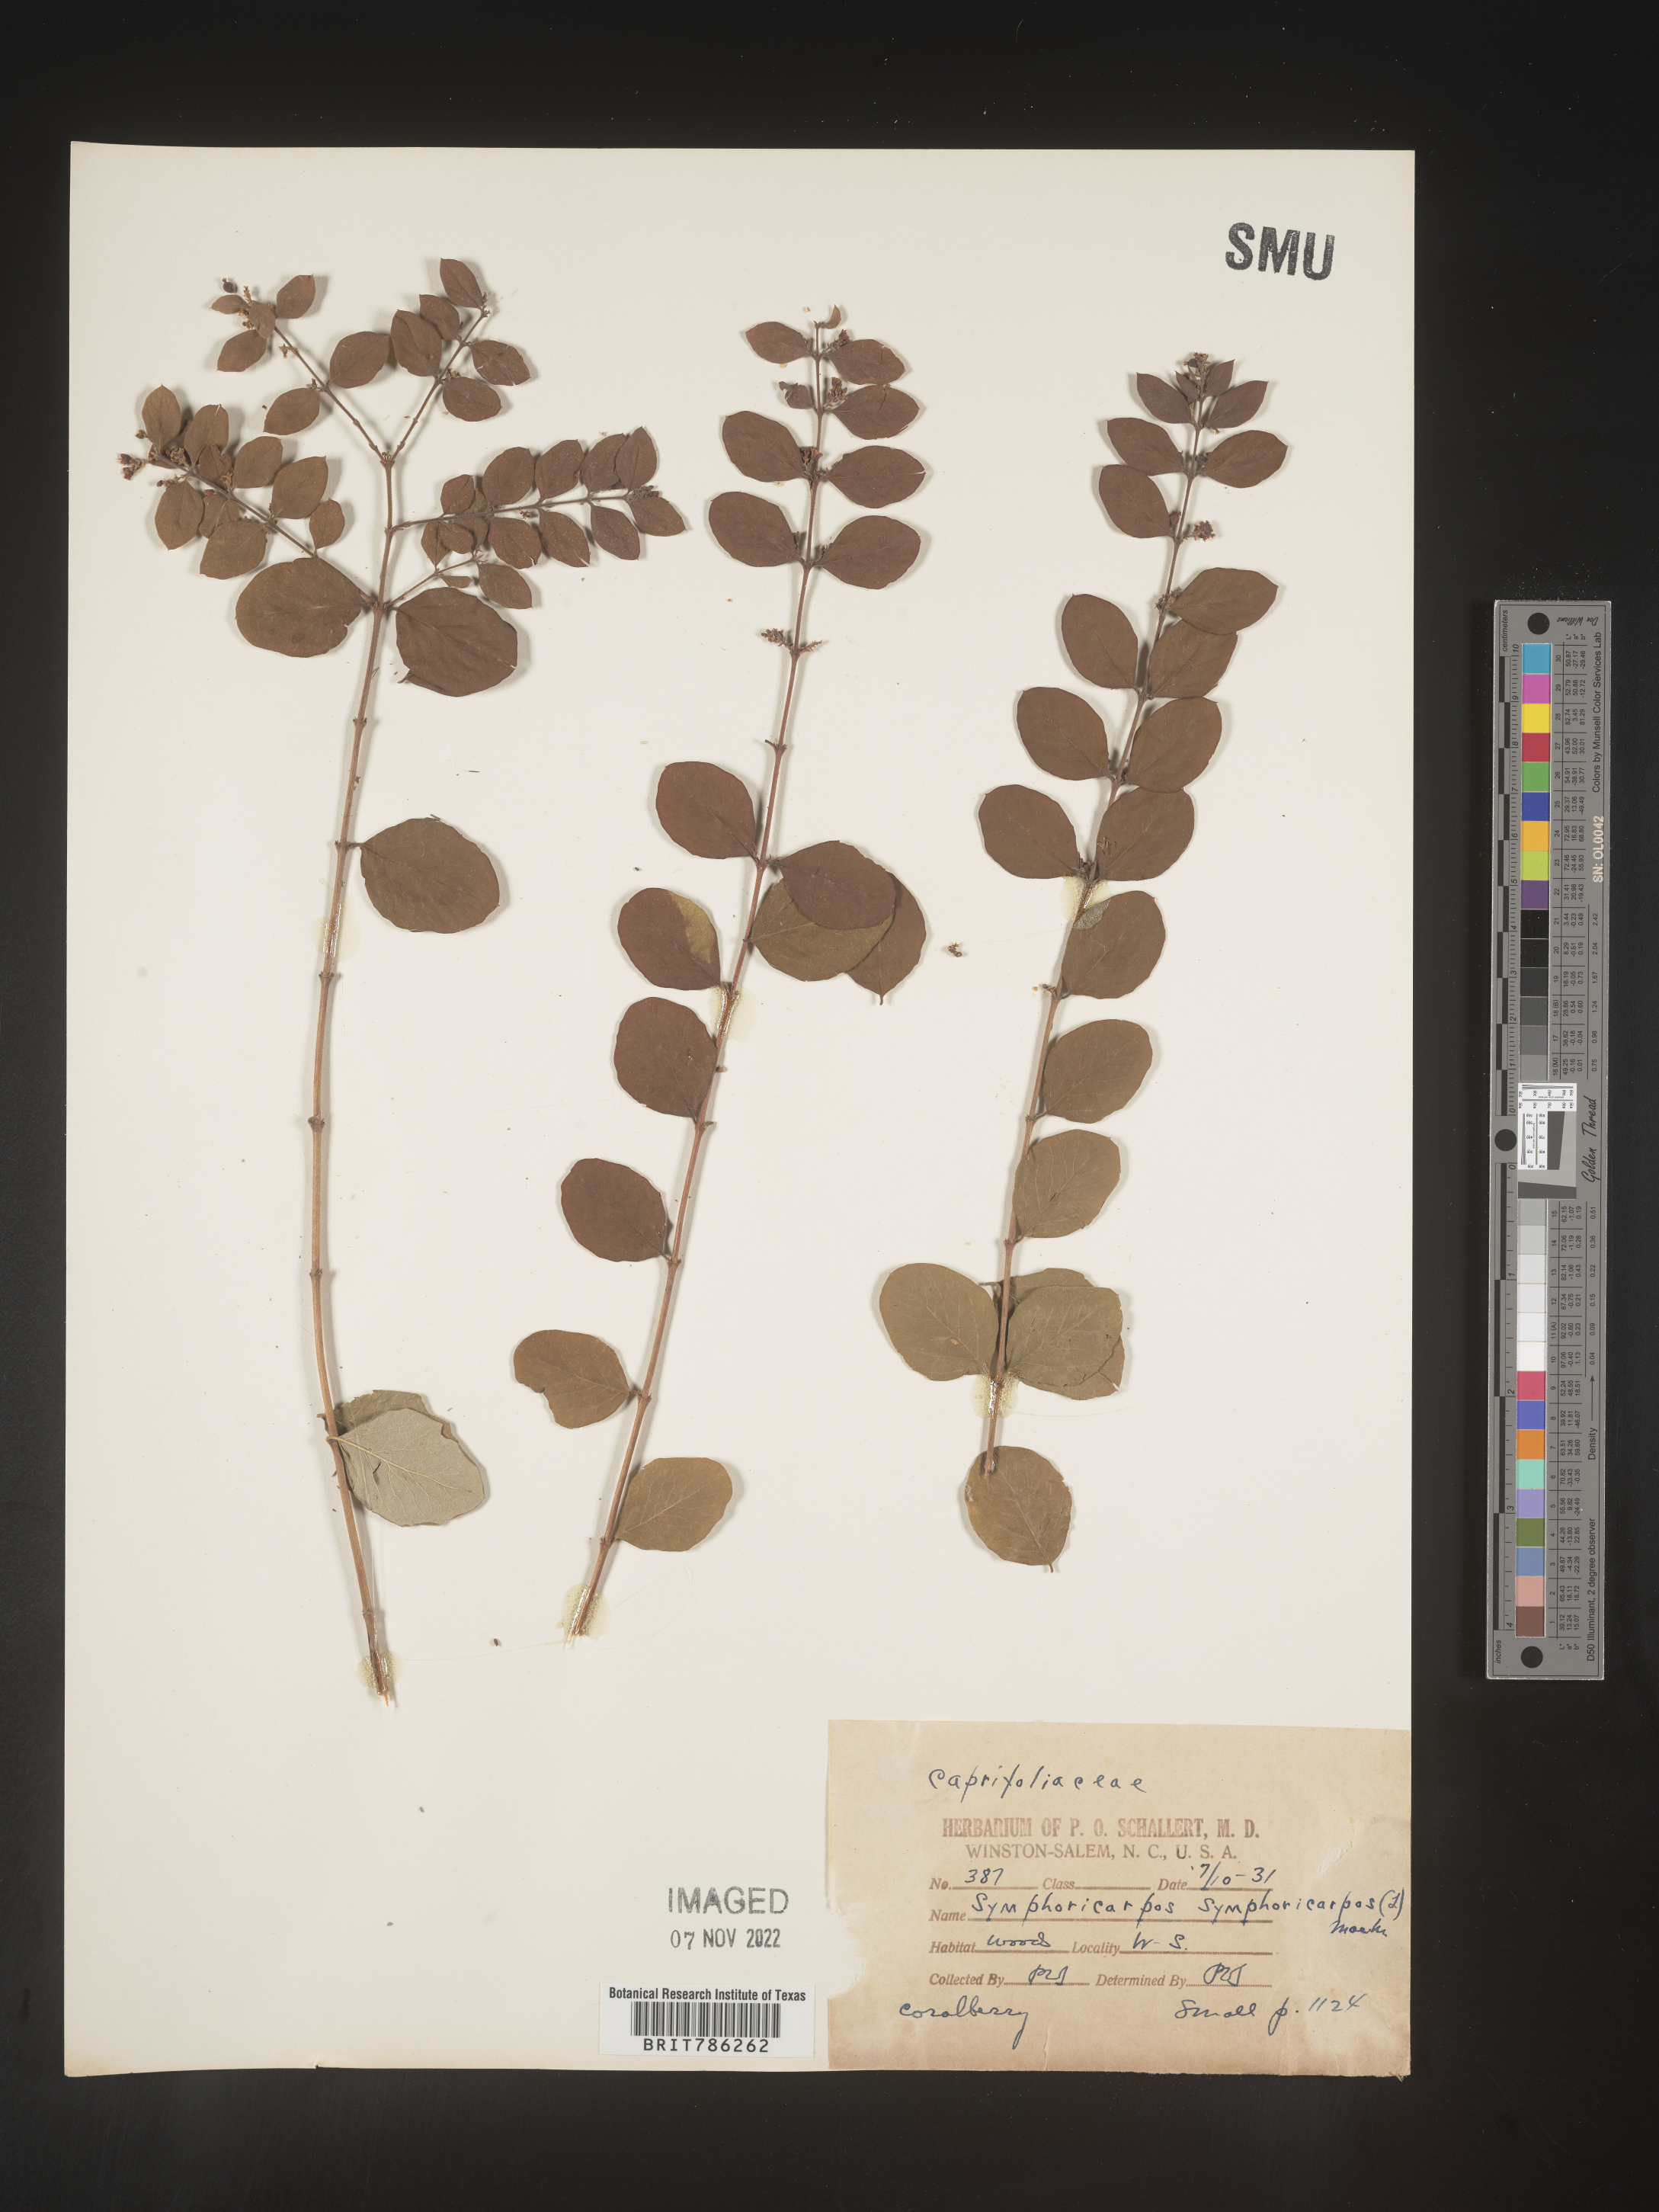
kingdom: Plantae
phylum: Tracheophyta
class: Magnoliopsida
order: Dipsacales
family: Caprifoliaceae
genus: Symphoricarpos
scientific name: Symphoricarpos orbiculatus
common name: Coralberry
